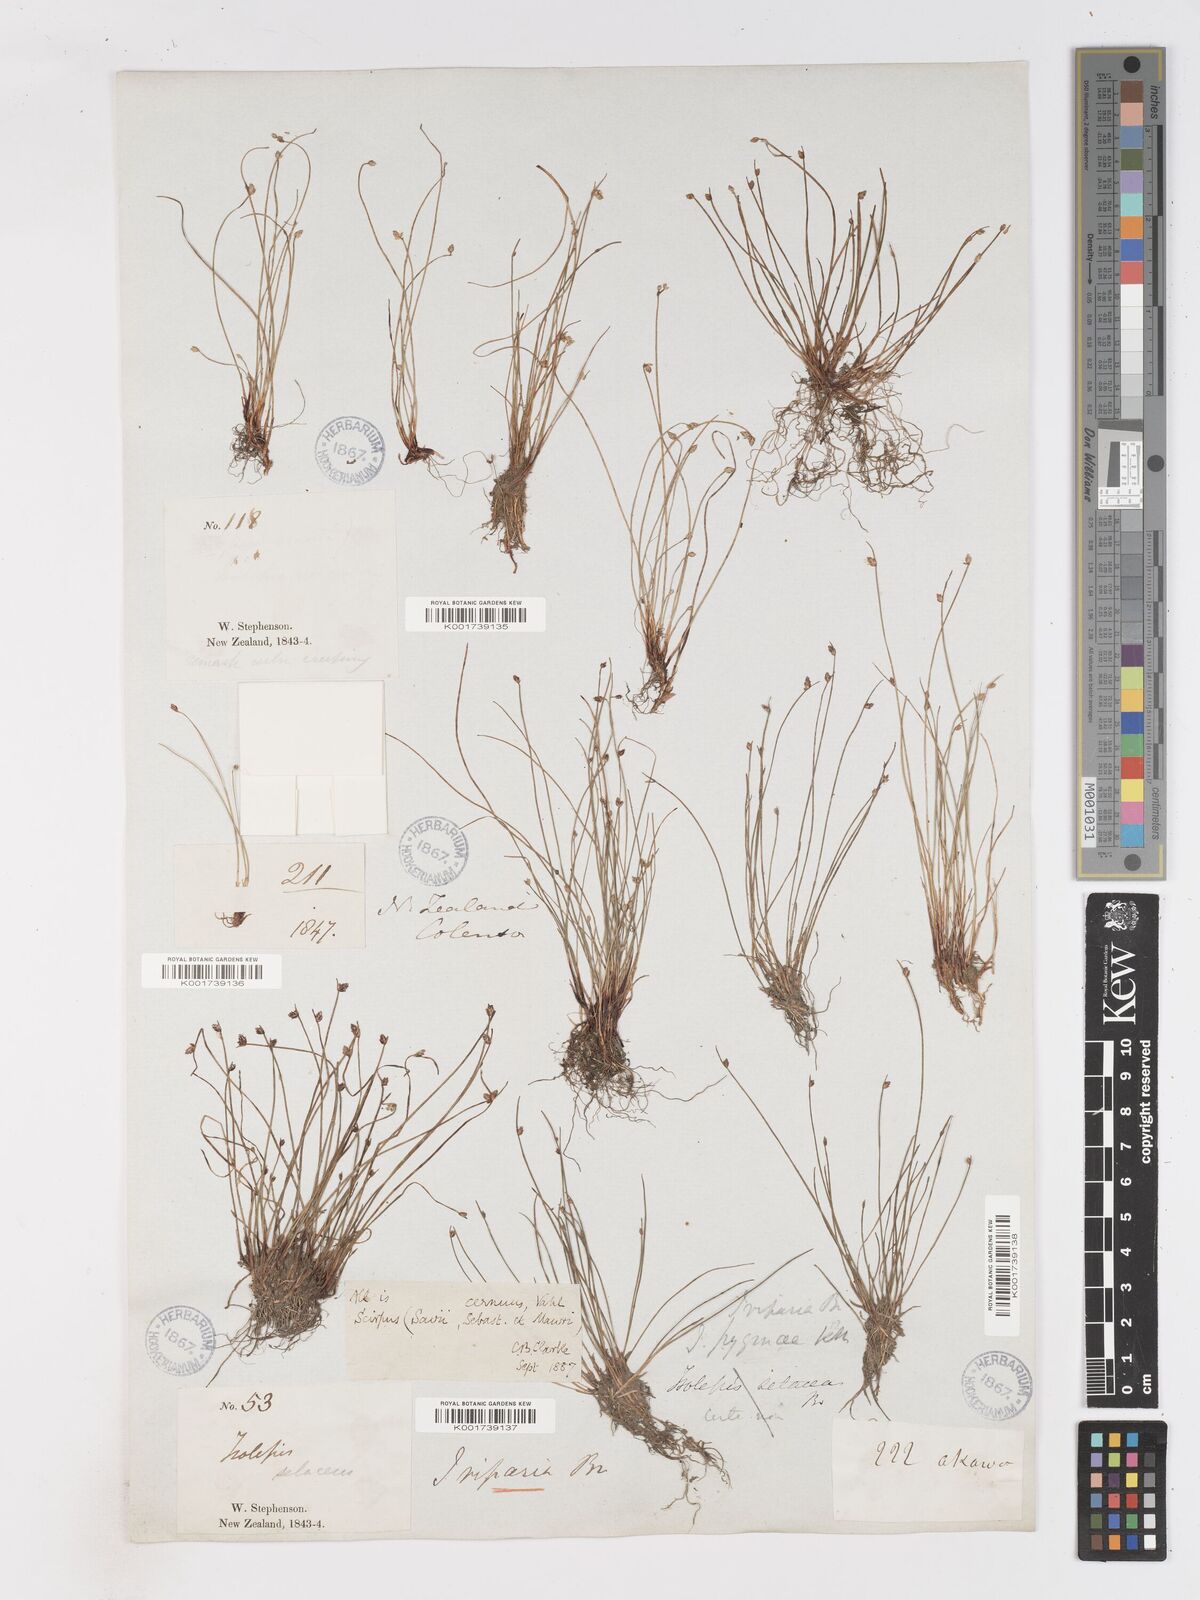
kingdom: Plantae
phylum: Tracheophyta
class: Liliopsida
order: Poales
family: Cyperaceae
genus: Isolepis
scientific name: Isolepis cernua
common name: Slender club-rush
